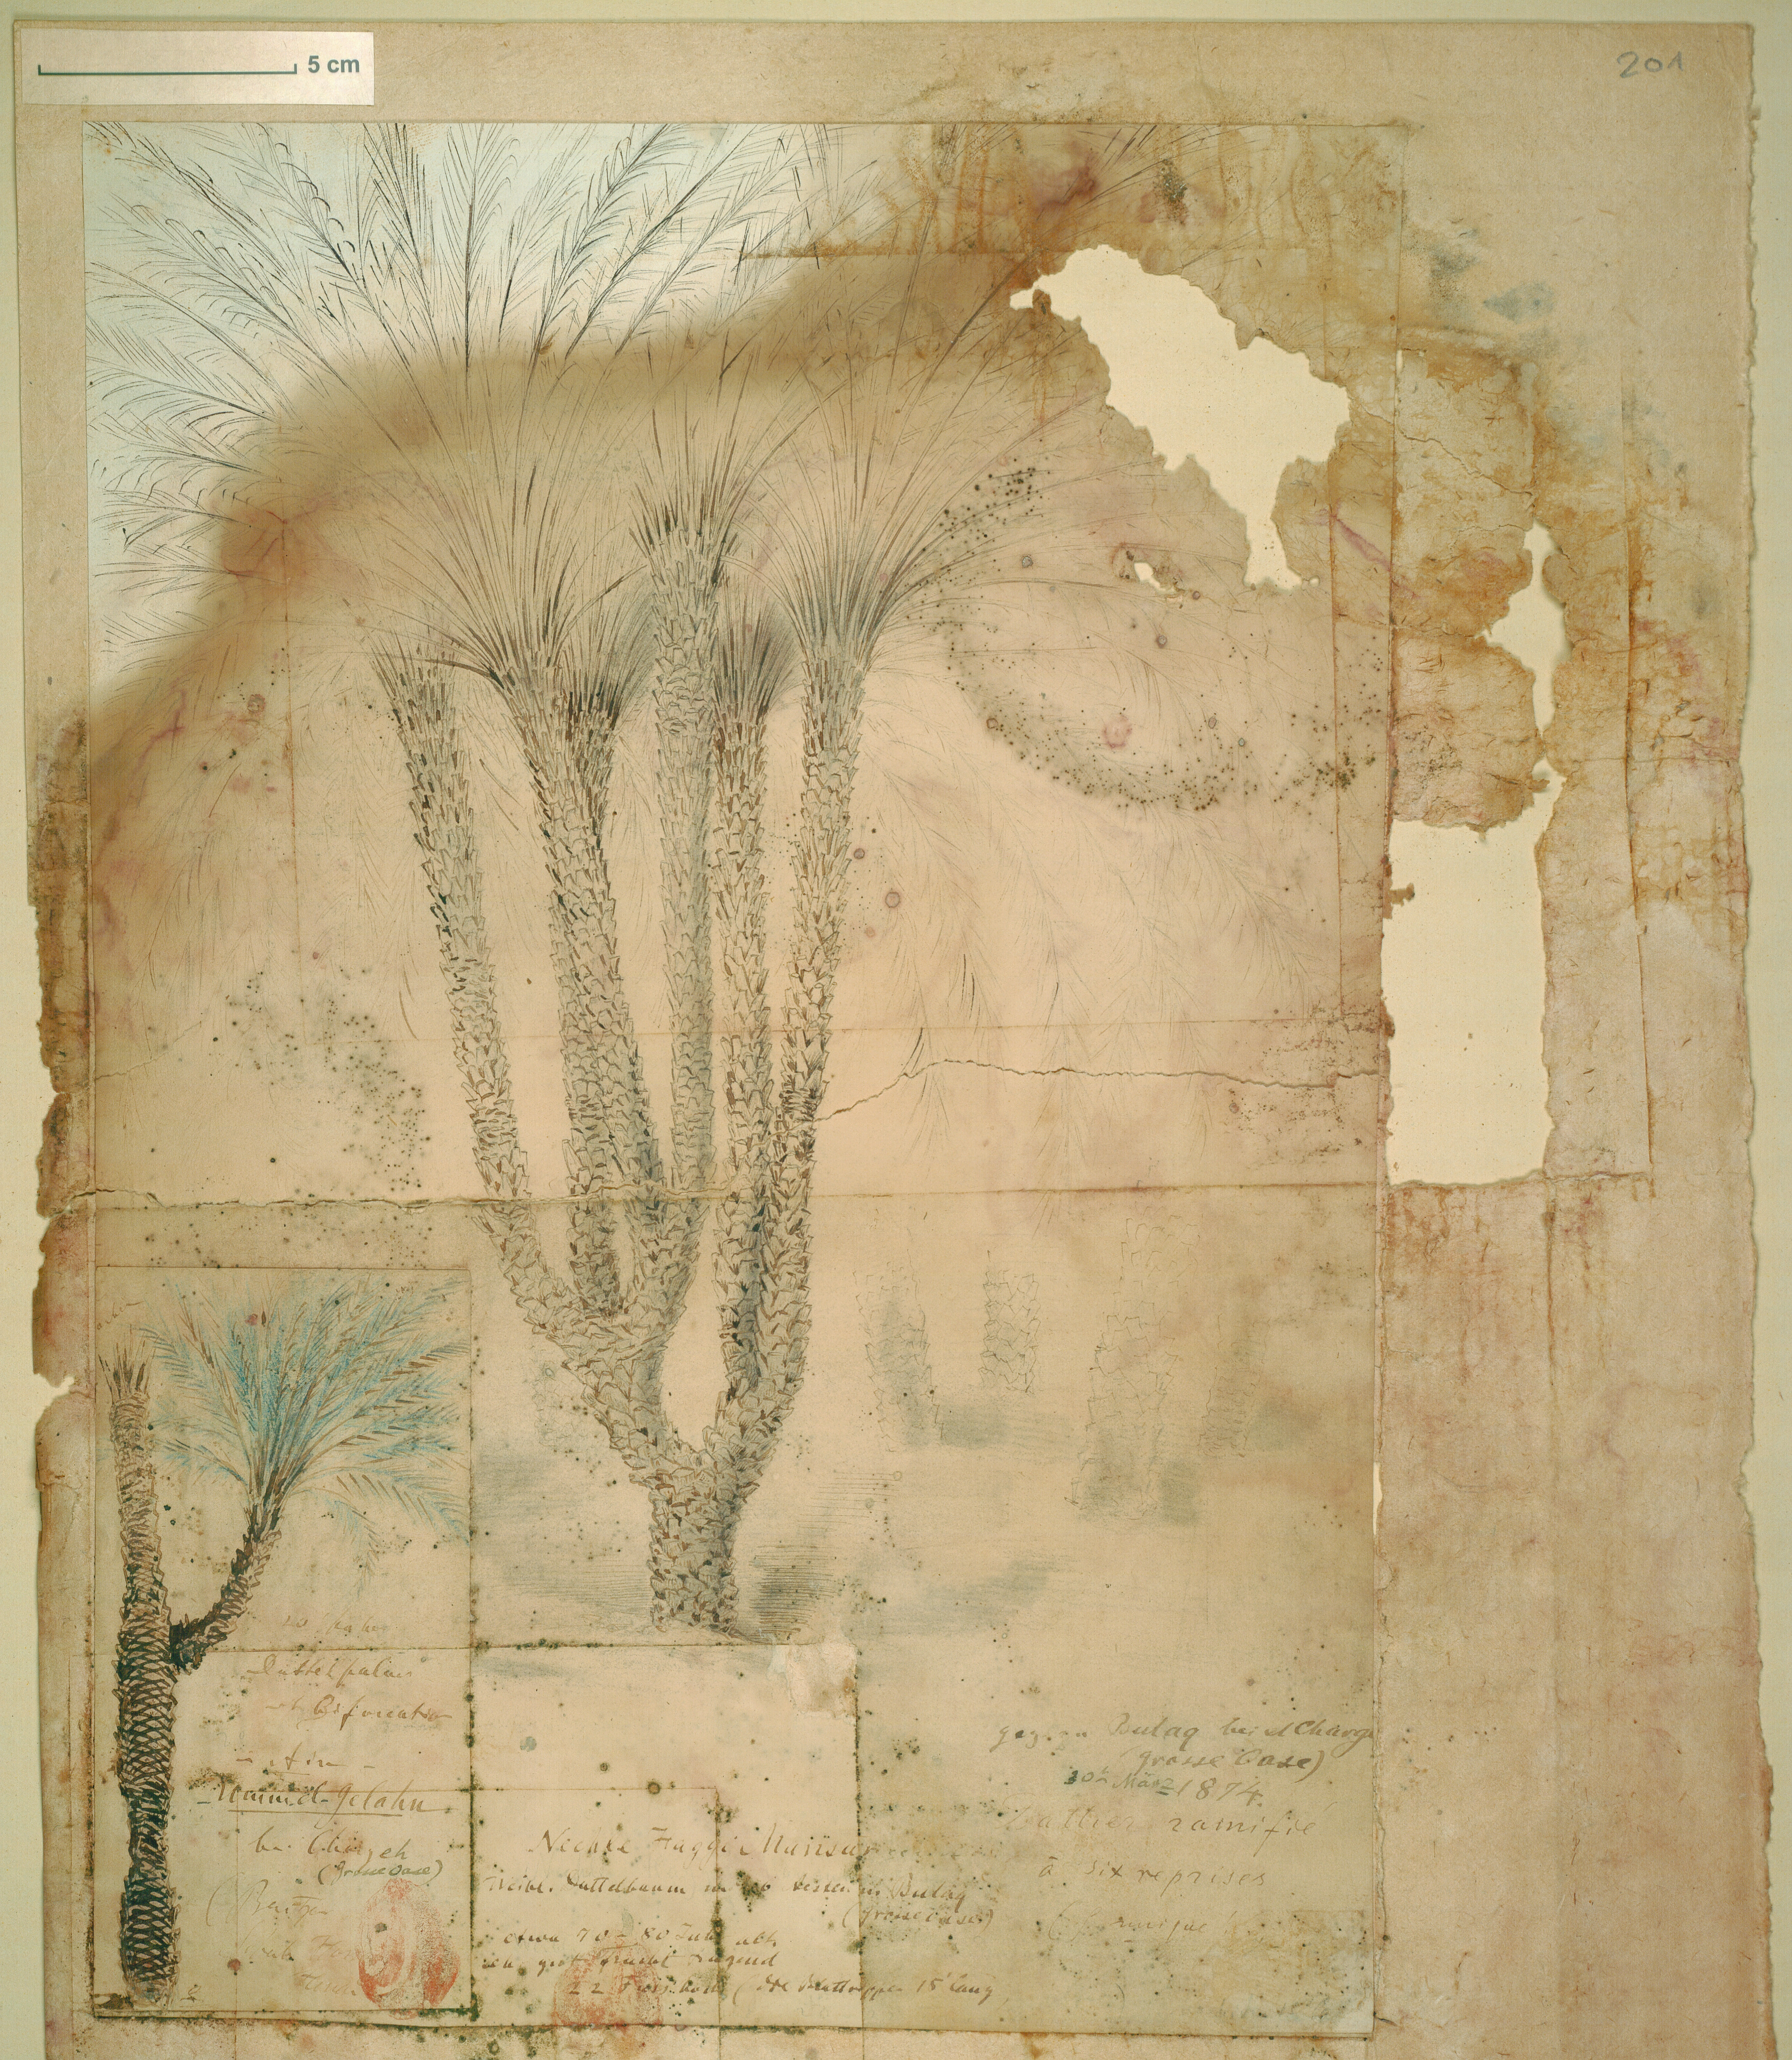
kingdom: Plantae
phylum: Tracheophyta
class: Liliopsida
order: Arecales
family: Arecaceae
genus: Phoenix
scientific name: Phoenix dactylifera
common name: Date palm
